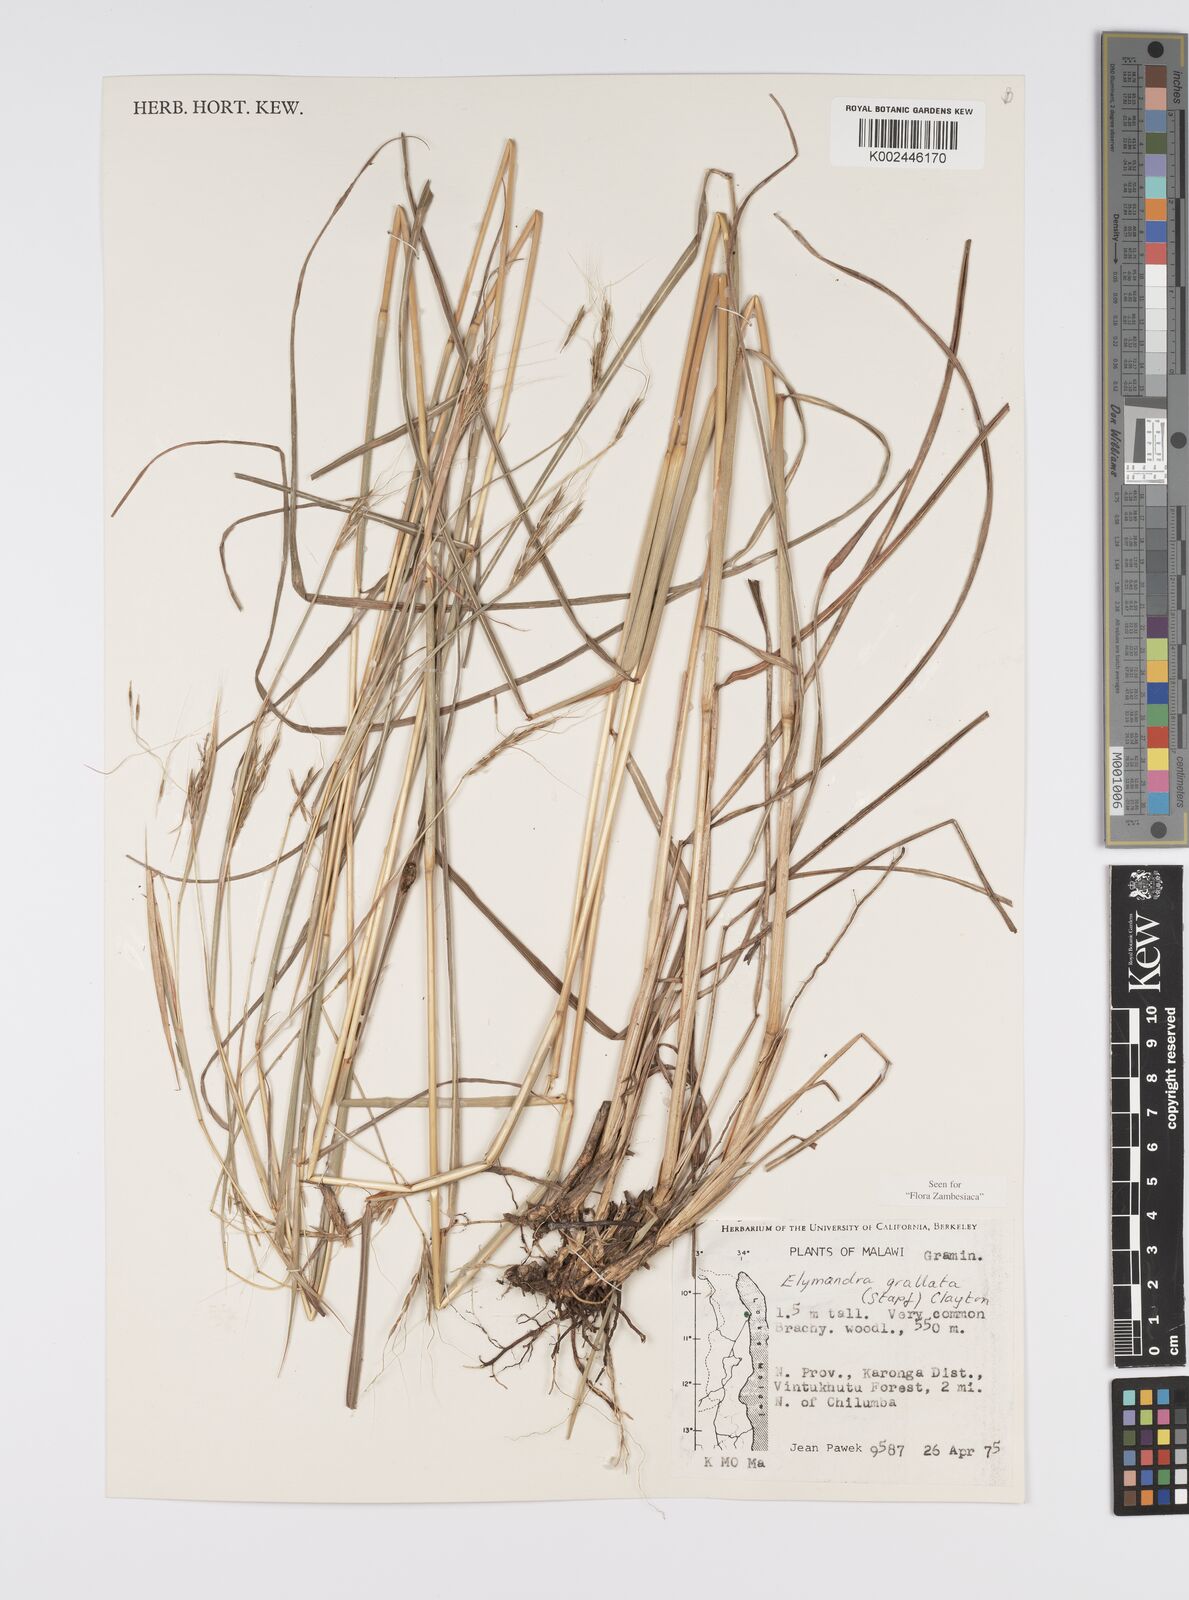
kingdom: Plantae
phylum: Tracheophyta
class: Liliopsida
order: Poales
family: Poaceae
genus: Elymandra
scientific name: Elymandra grallata
